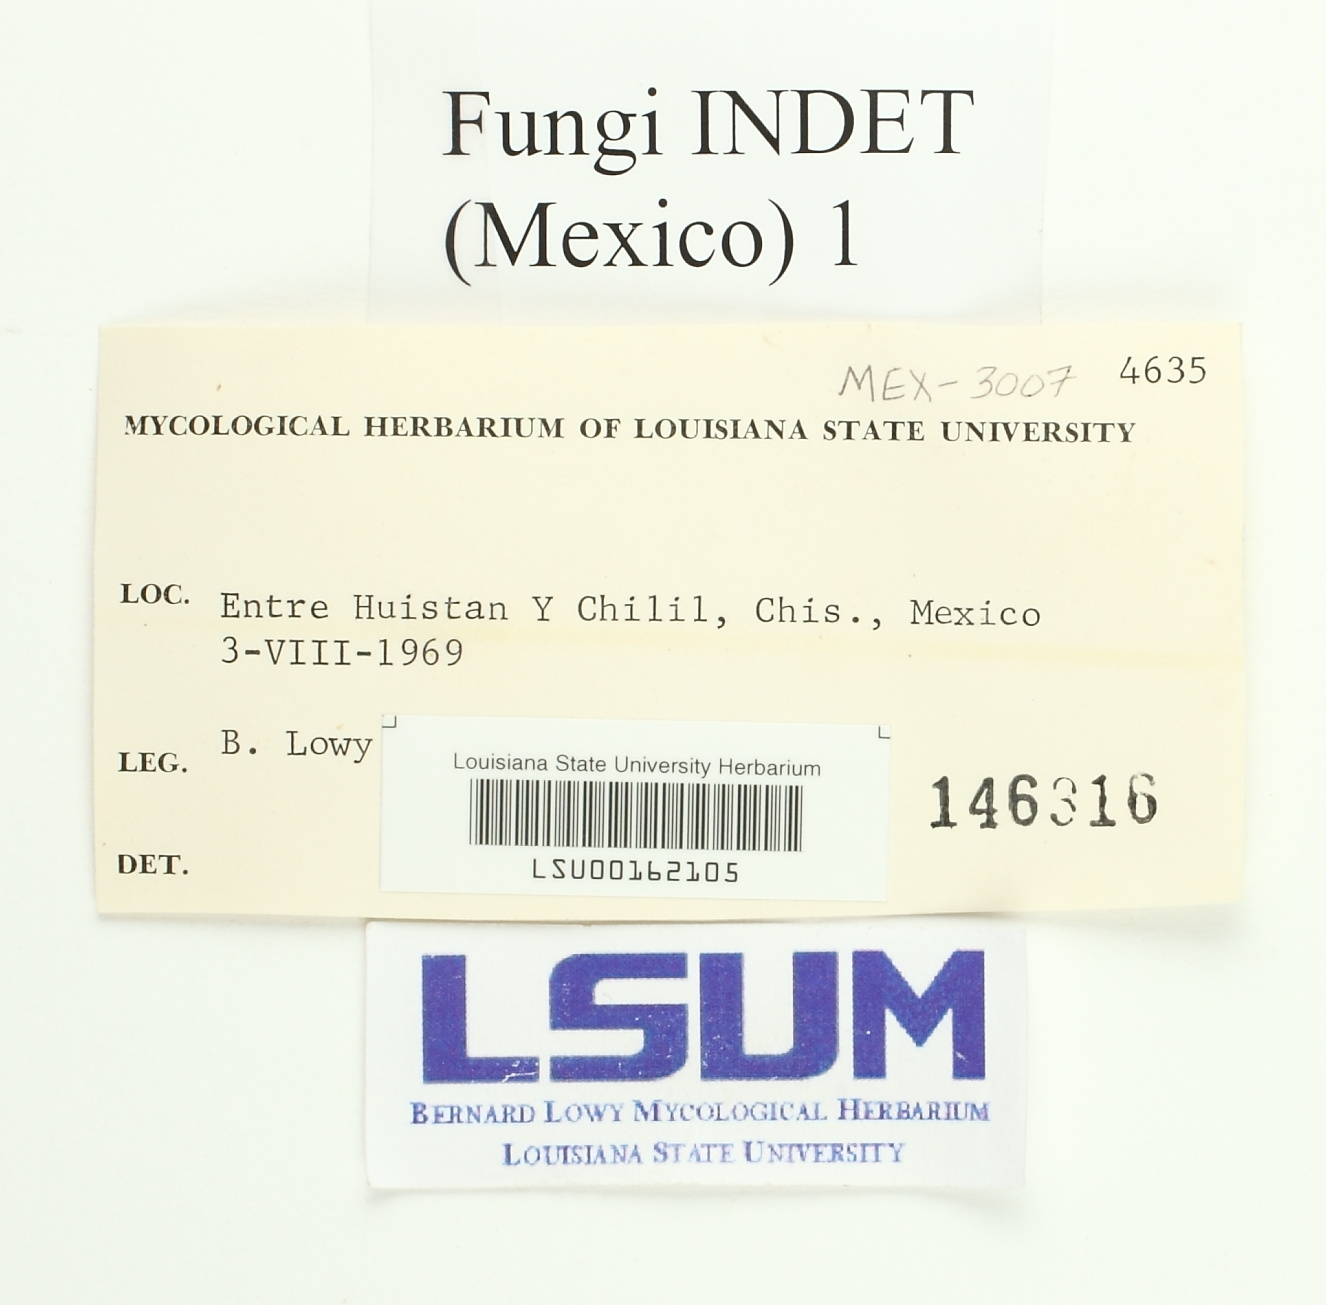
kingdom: Fungi
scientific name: Fungi
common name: Fungi
